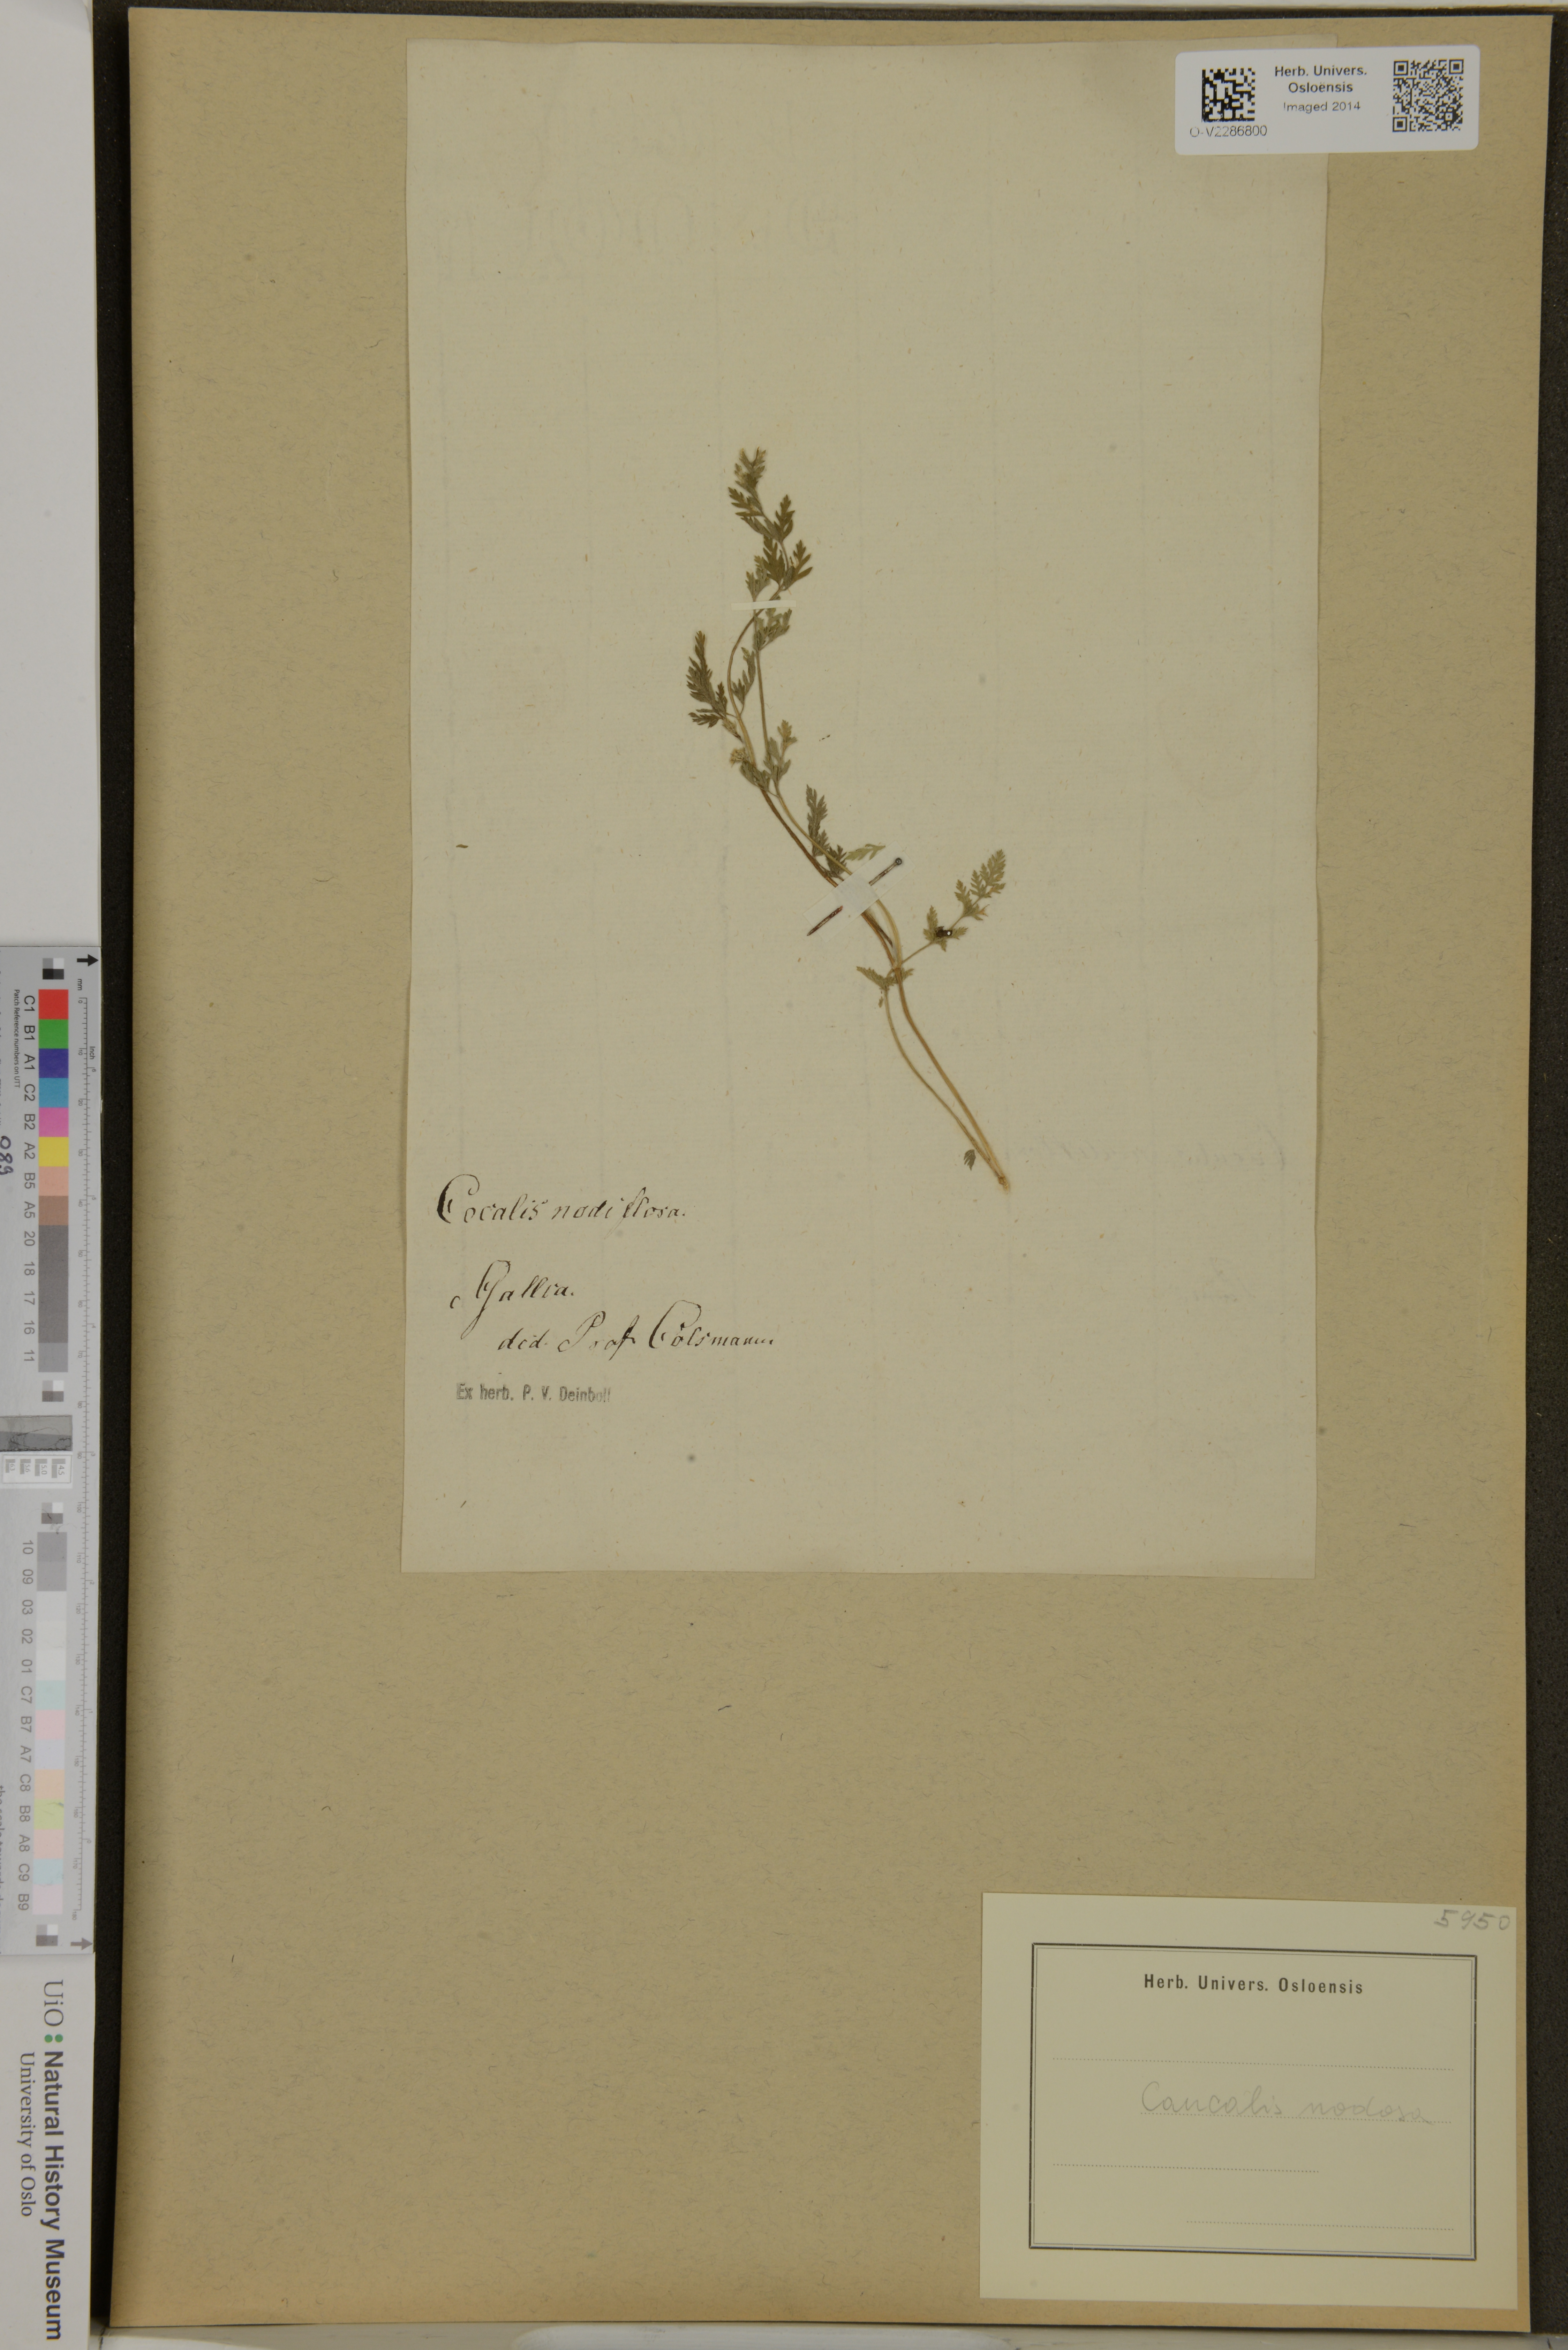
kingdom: Plantae
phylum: Tracheophyta
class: Magnoliopsida
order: Apiales
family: Apiaceae
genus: Torilis
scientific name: Torilis nodosa
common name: Knotted hedge-parsley
